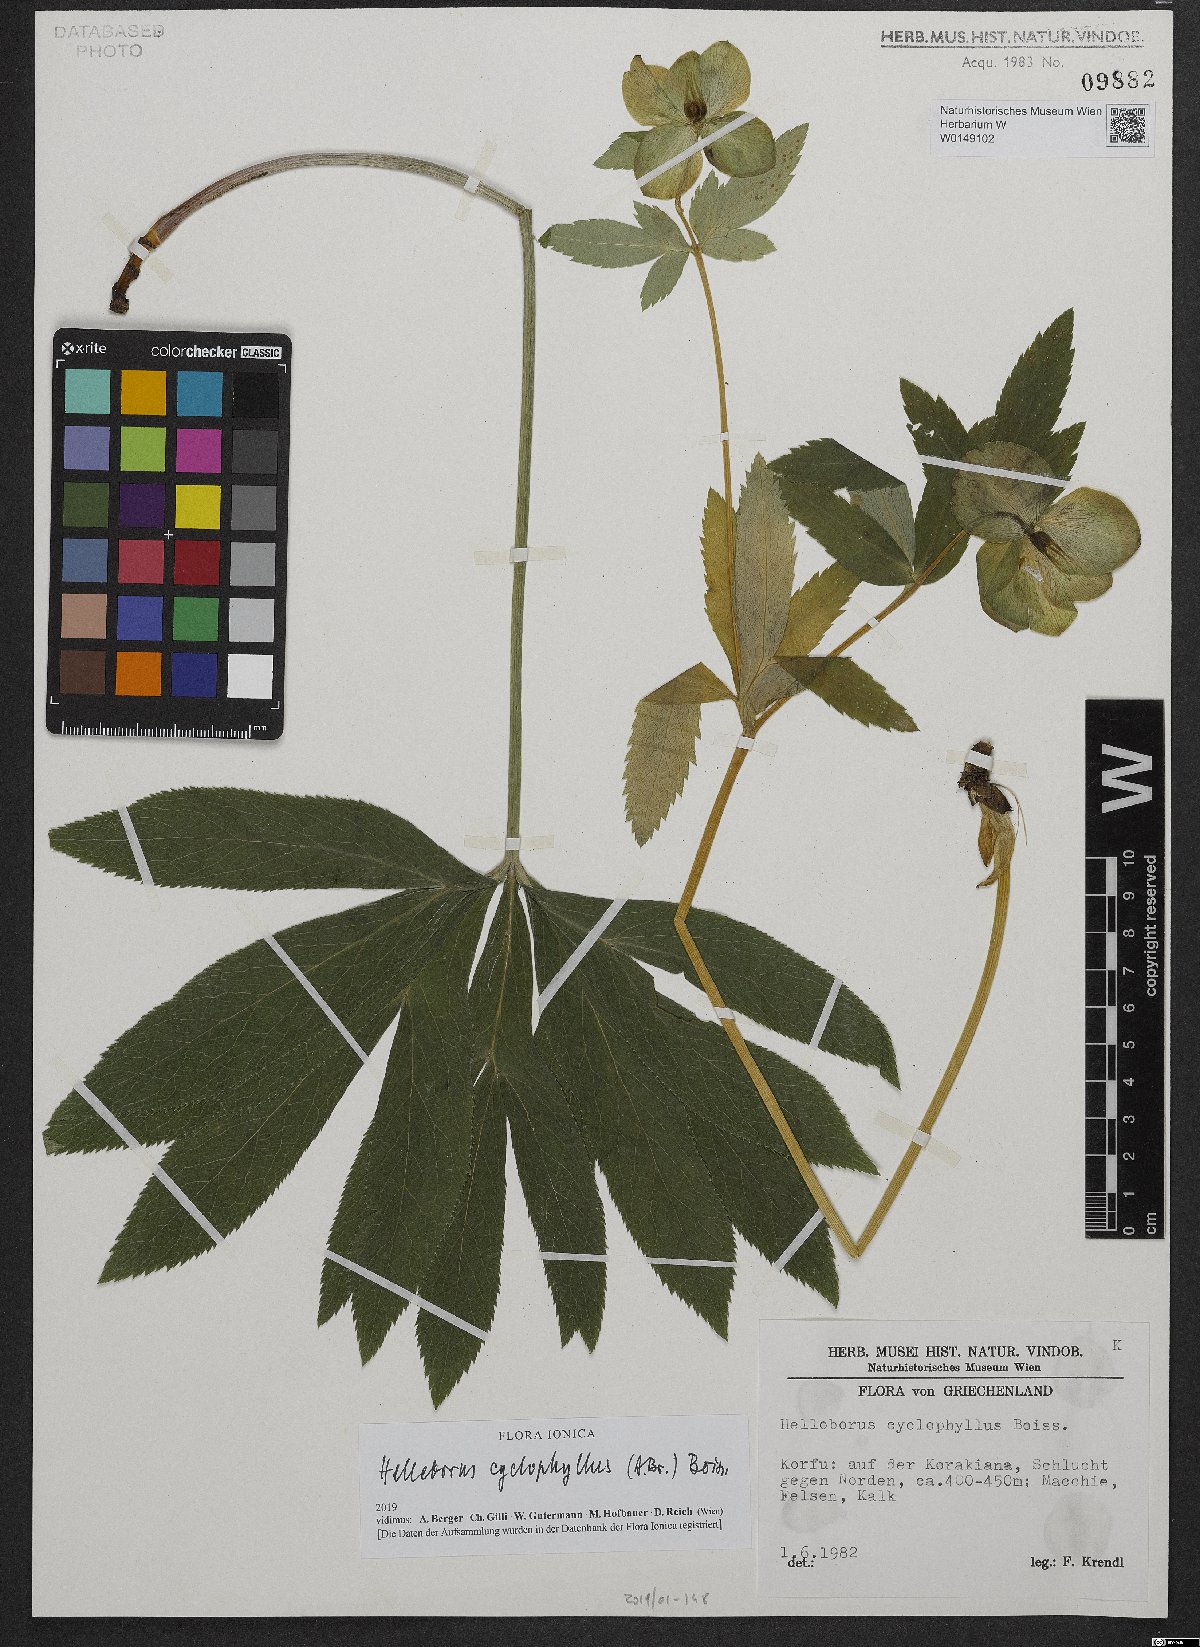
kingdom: Plantae
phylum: Tracheophyta
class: Magnoliopsida
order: Ranunculales
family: Ranunculaceae
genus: Helleborus
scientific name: Helleborus odorus
